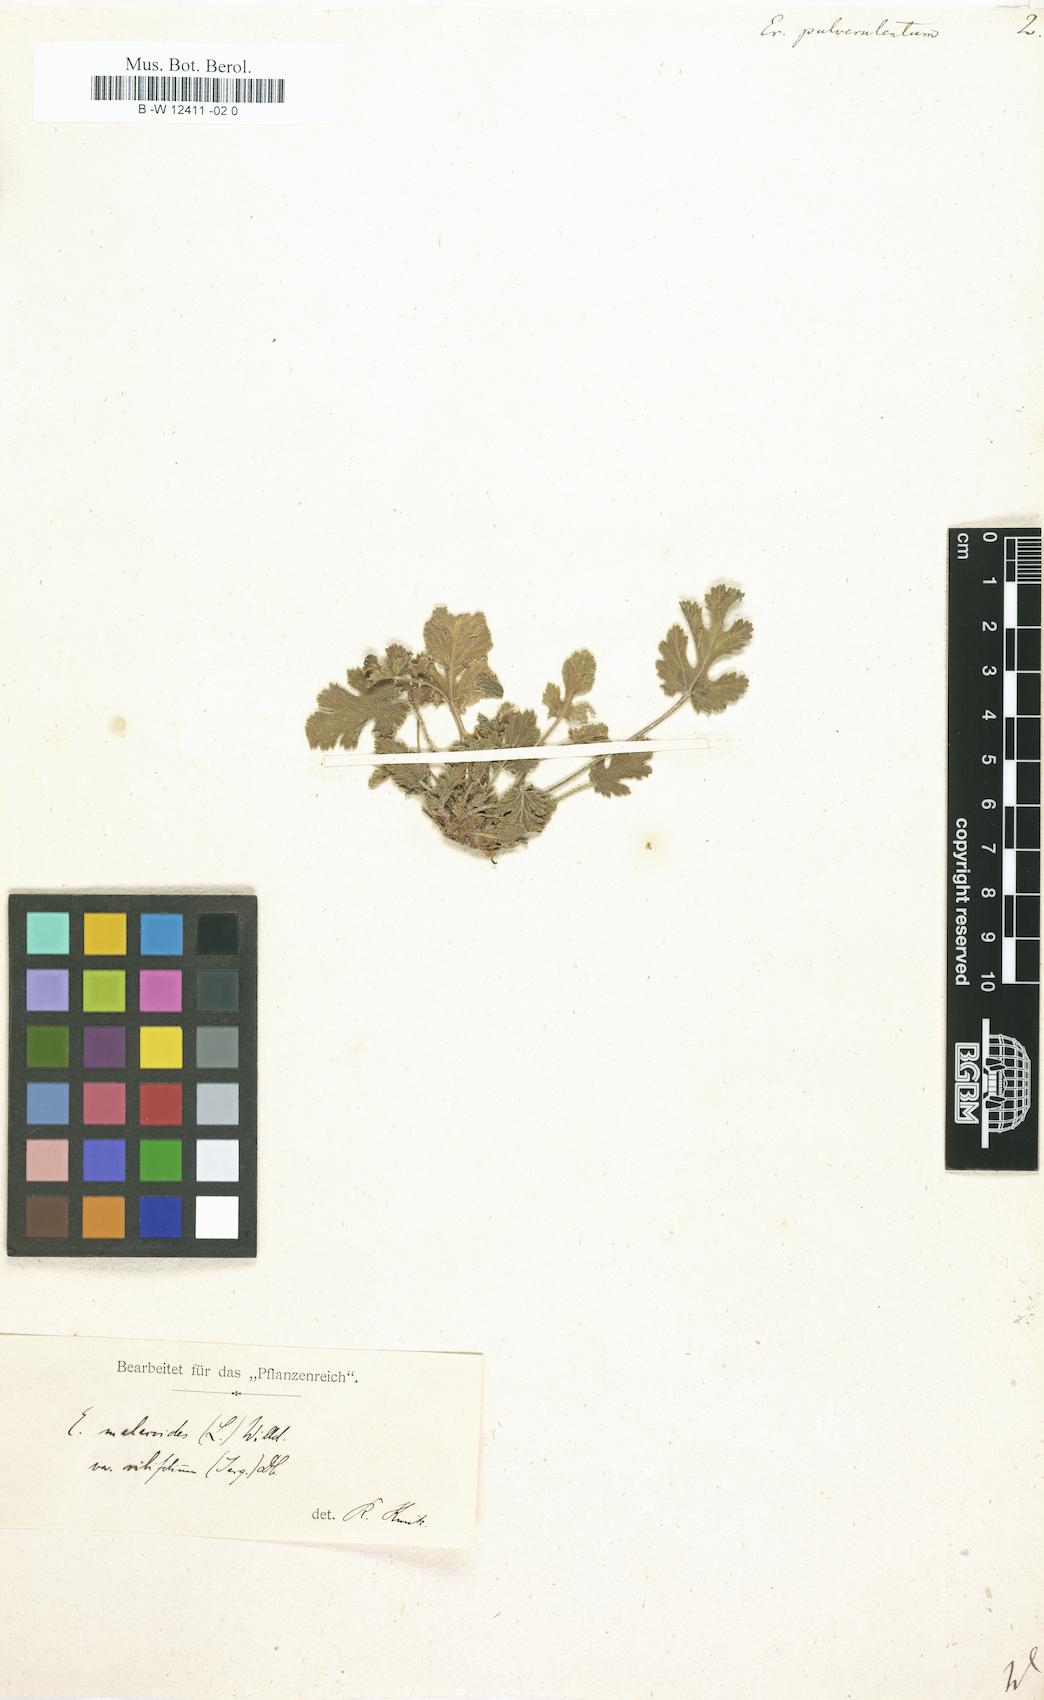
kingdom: Plantae
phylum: Tracheophyta
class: Magnoliopsida
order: Geraniales
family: Geraniaceae
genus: Erodium
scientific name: Erodium laciniatum
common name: Cutleaf stork's bill
